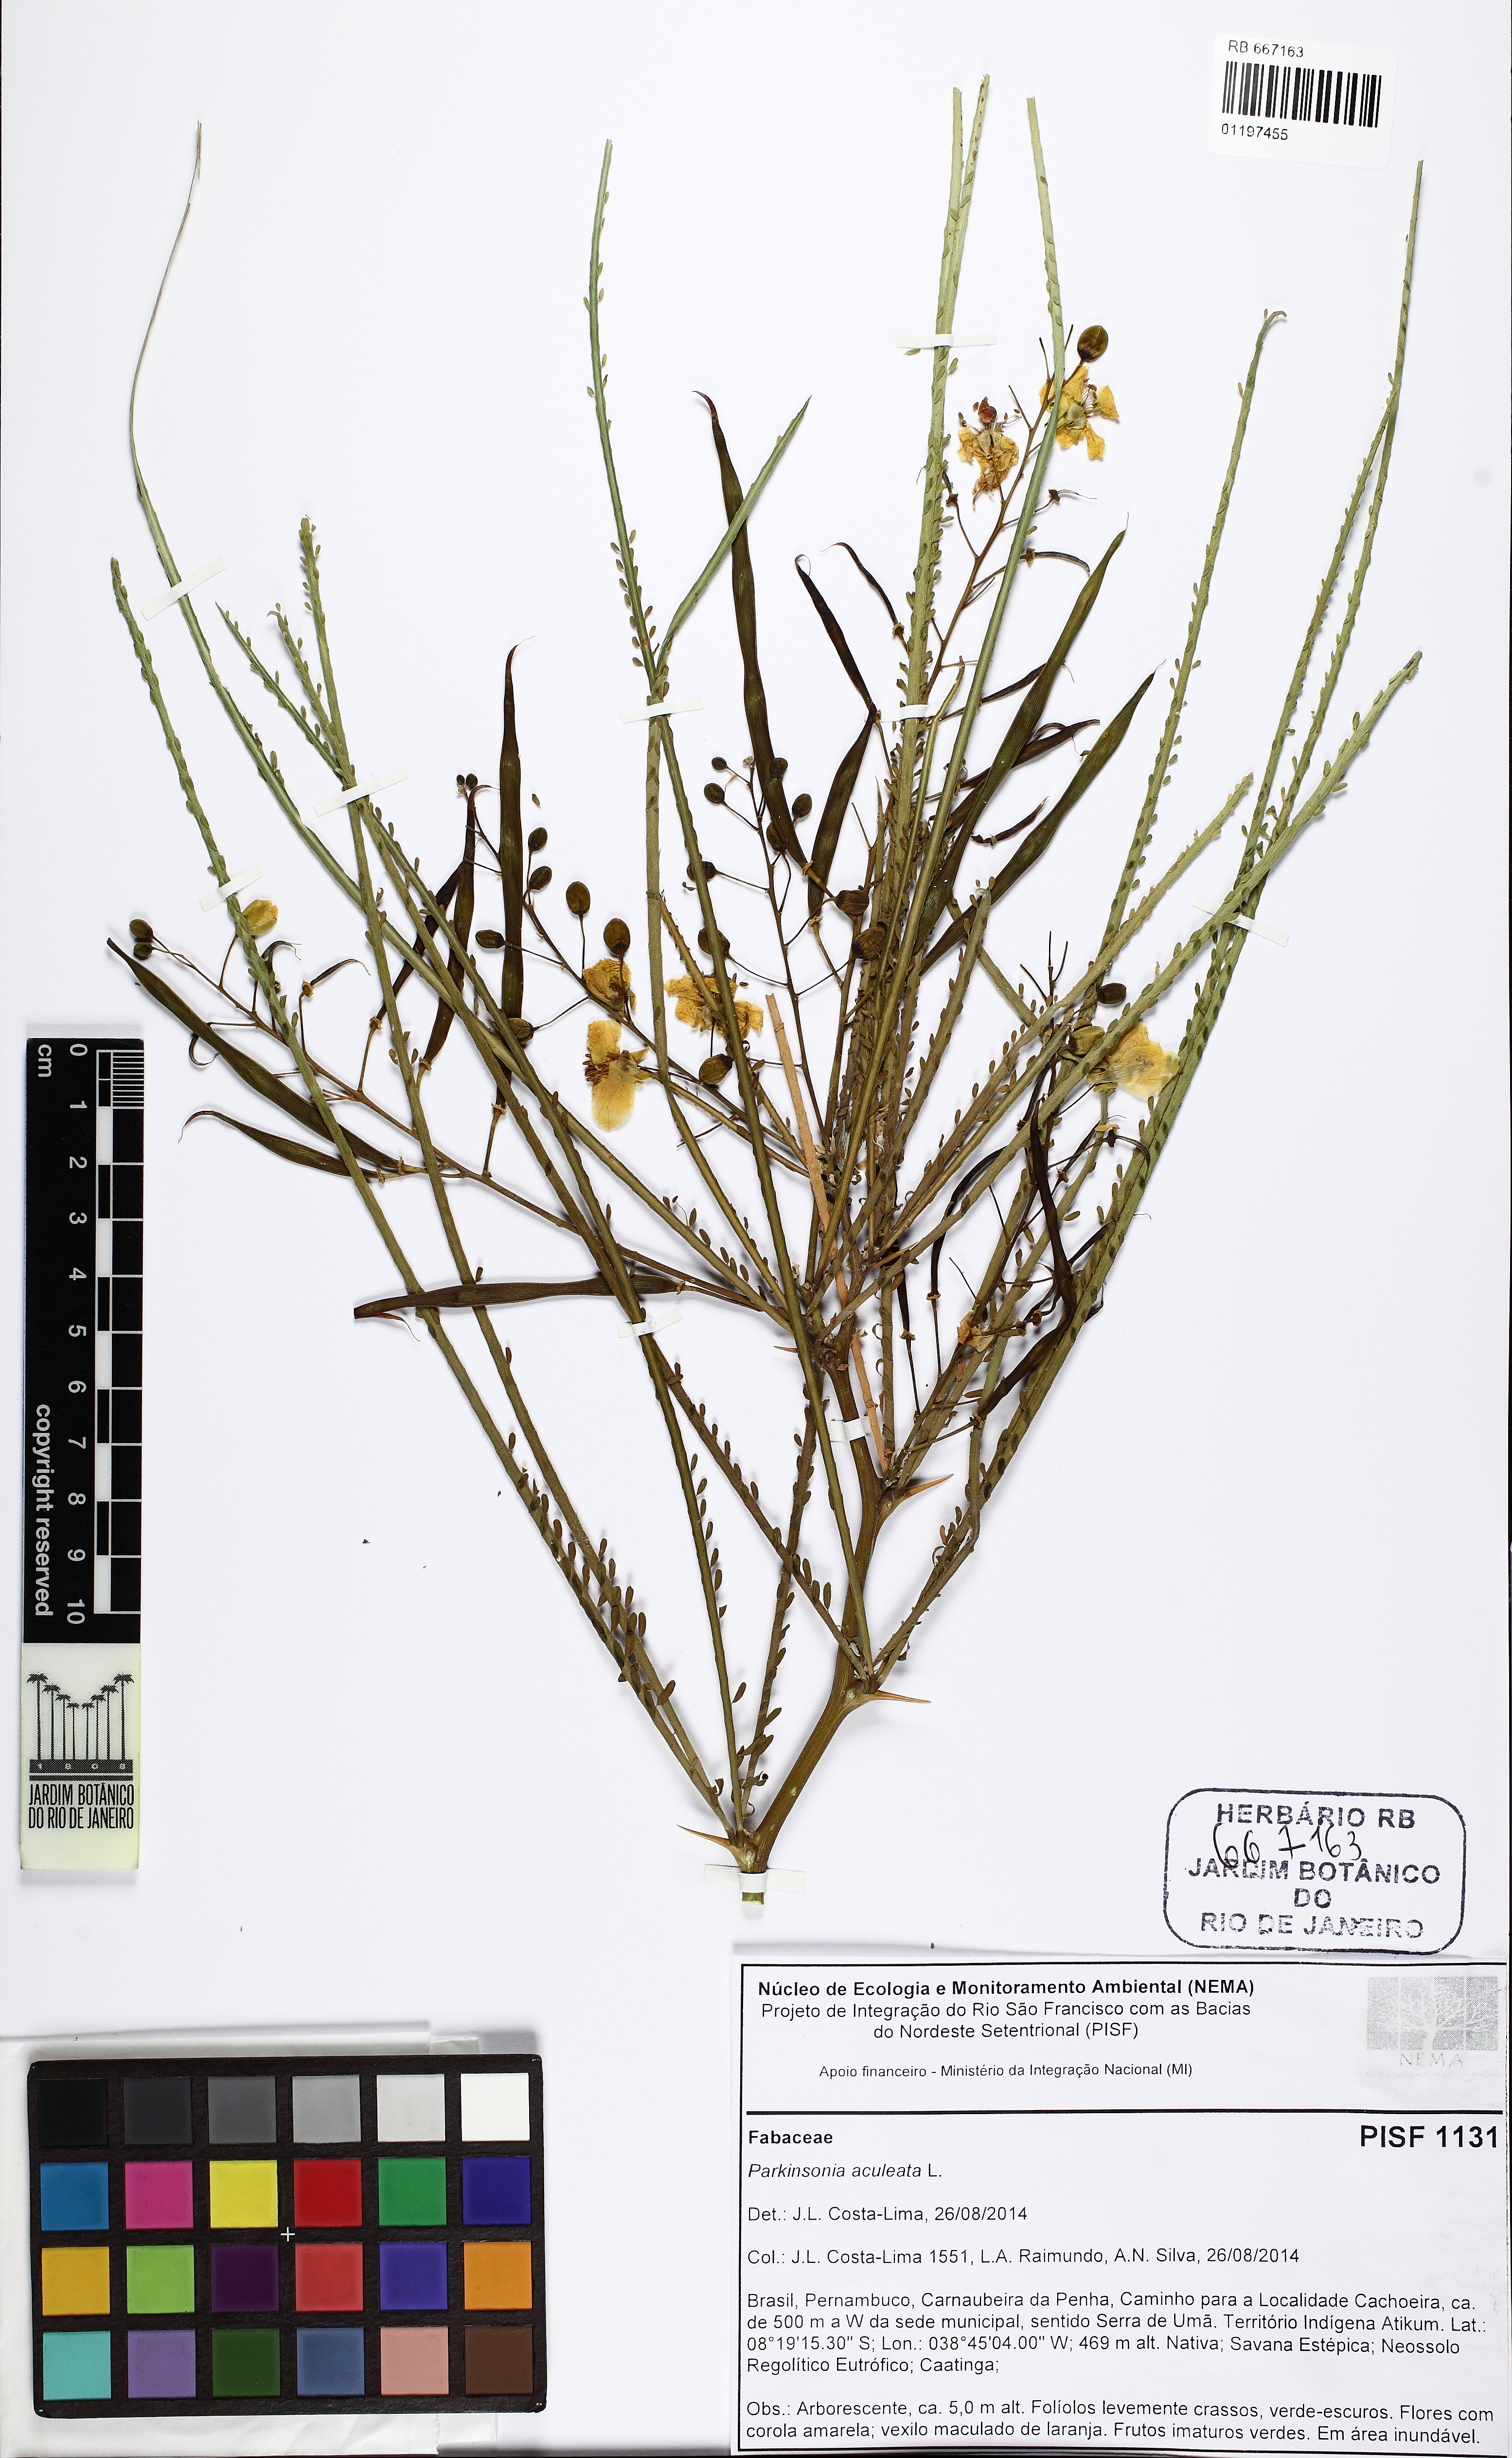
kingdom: Plantae
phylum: Tracheophyta
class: Magnoliopsida
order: Fabales
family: Fabaceae
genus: Parkinsonia
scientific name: Parkinsonia aculeata
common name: Jerusalem thorn
